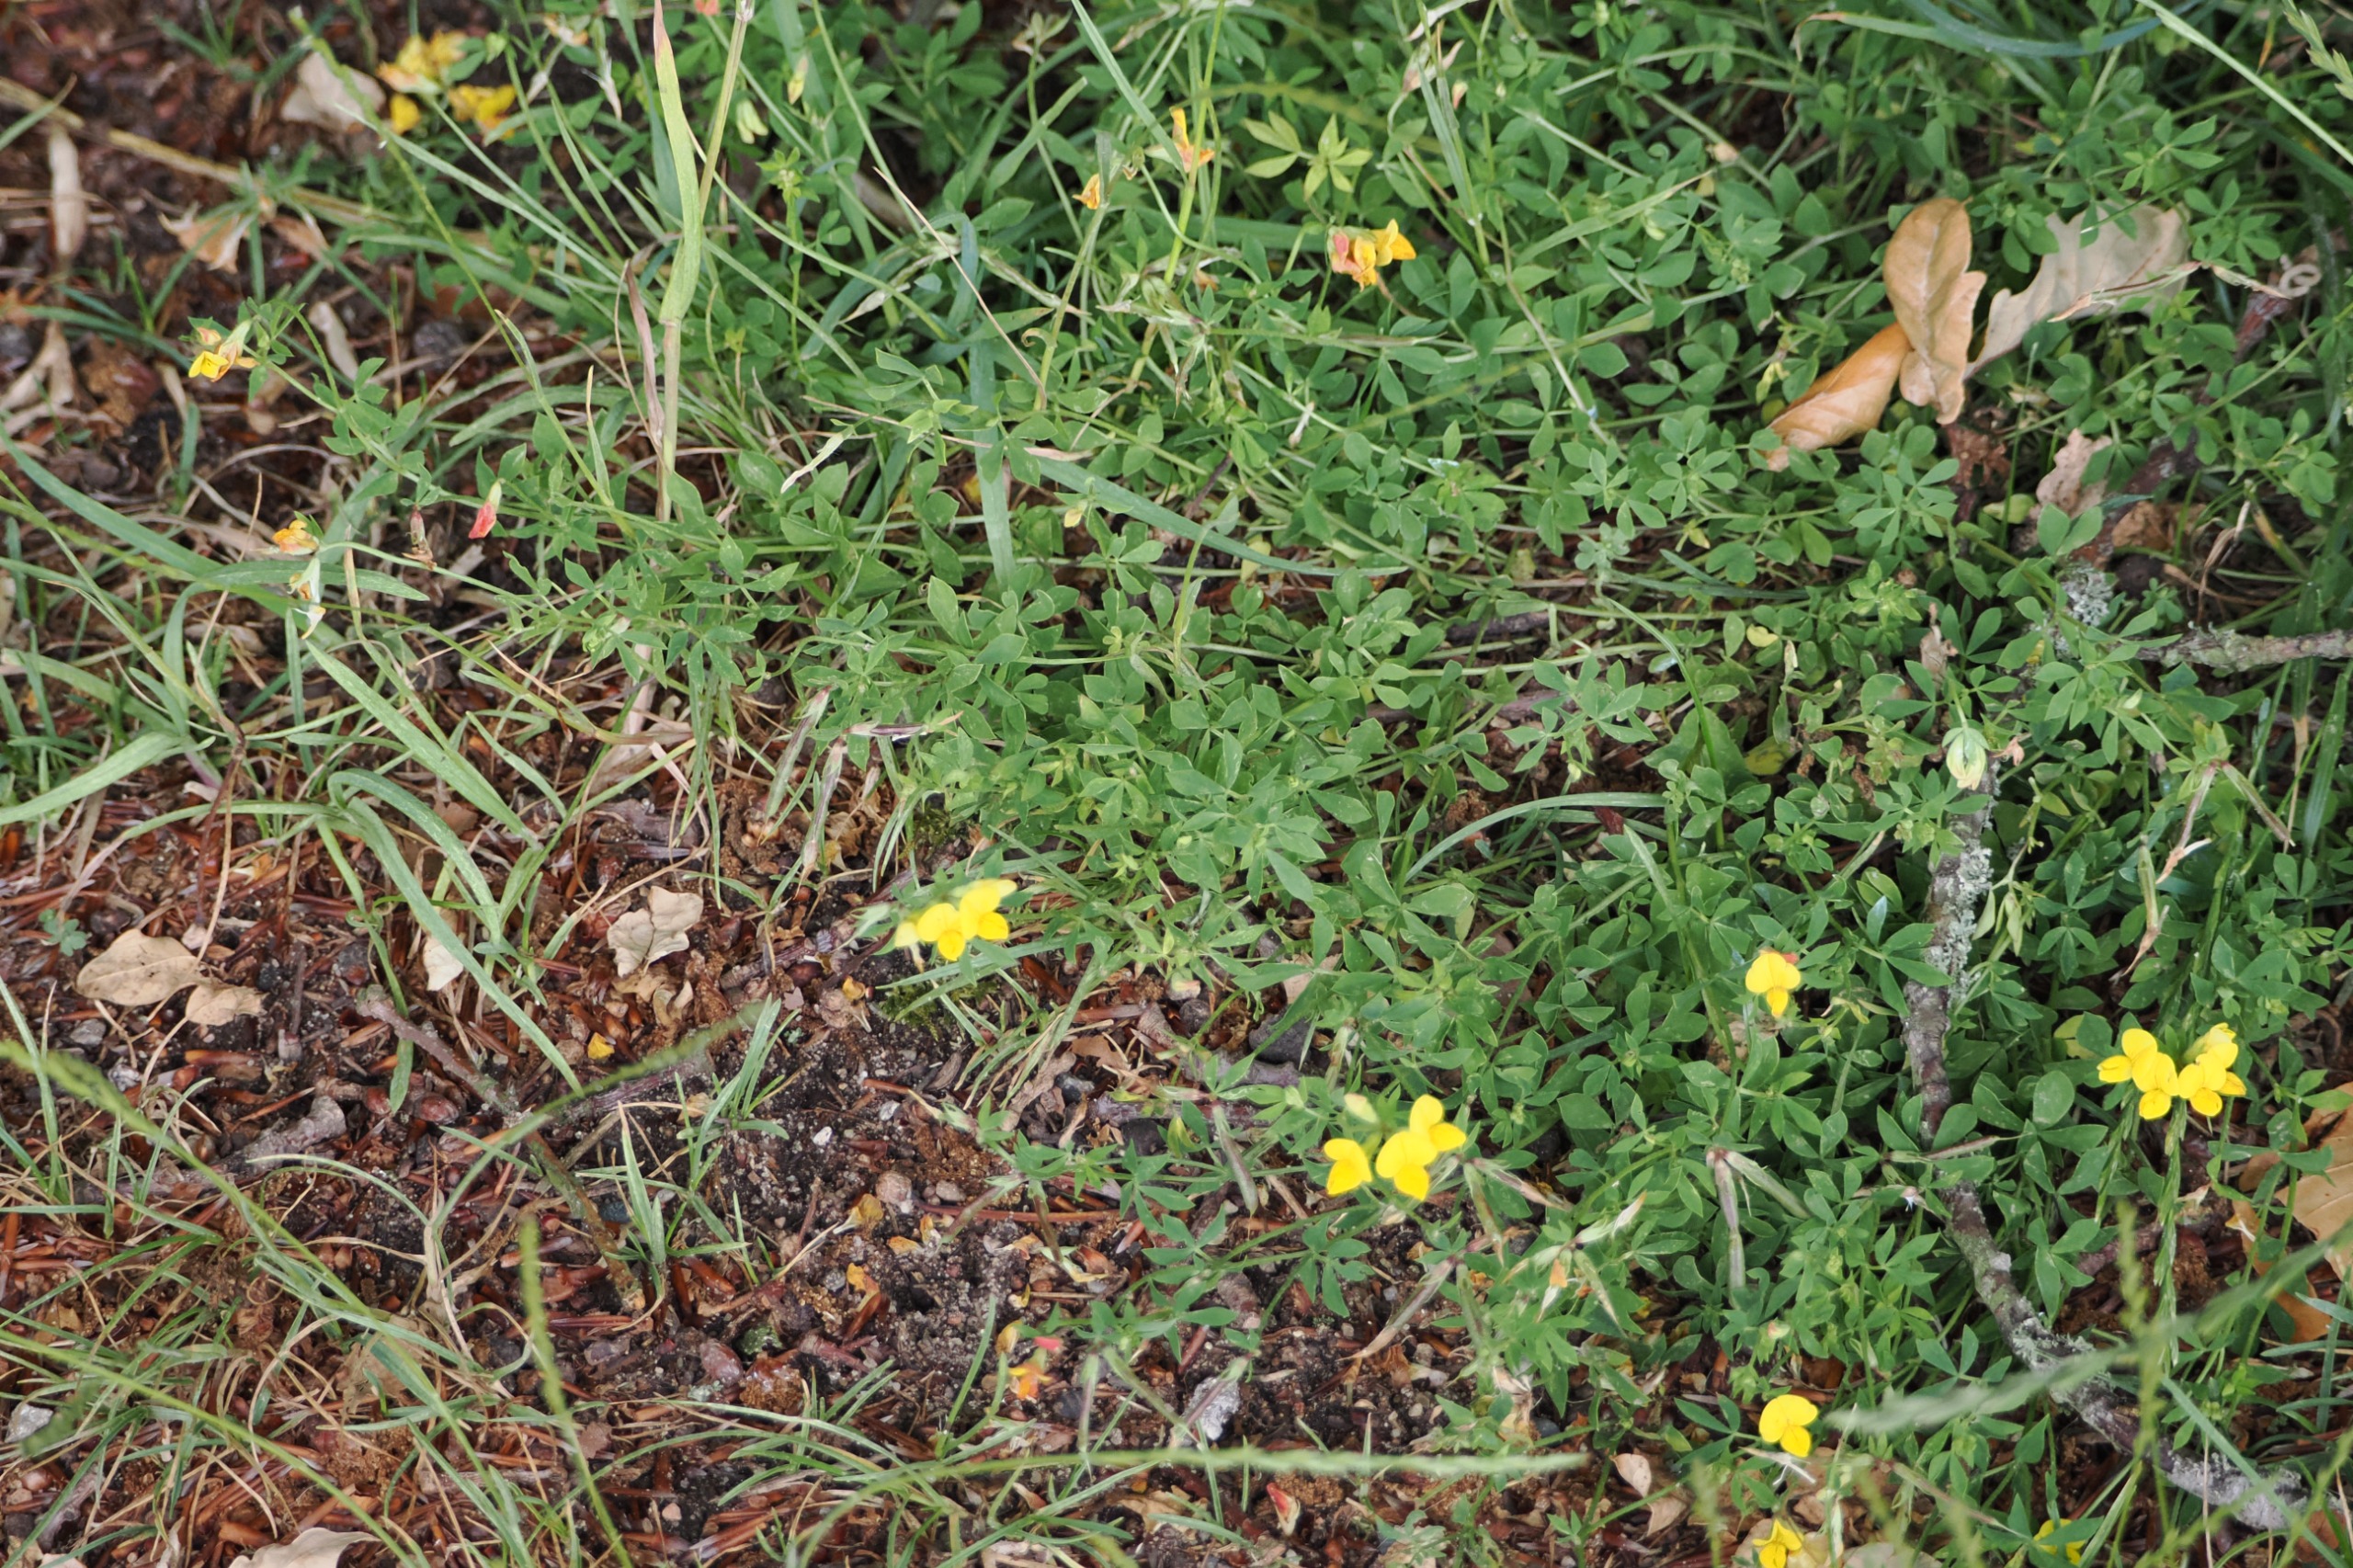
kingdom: Plantae
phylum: Tracheophyta
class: Magnoliopsida
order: Fabales
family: Fabaceae
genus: Lotus
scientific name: Lotus corniculatus
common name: Almindelig kællingetand
